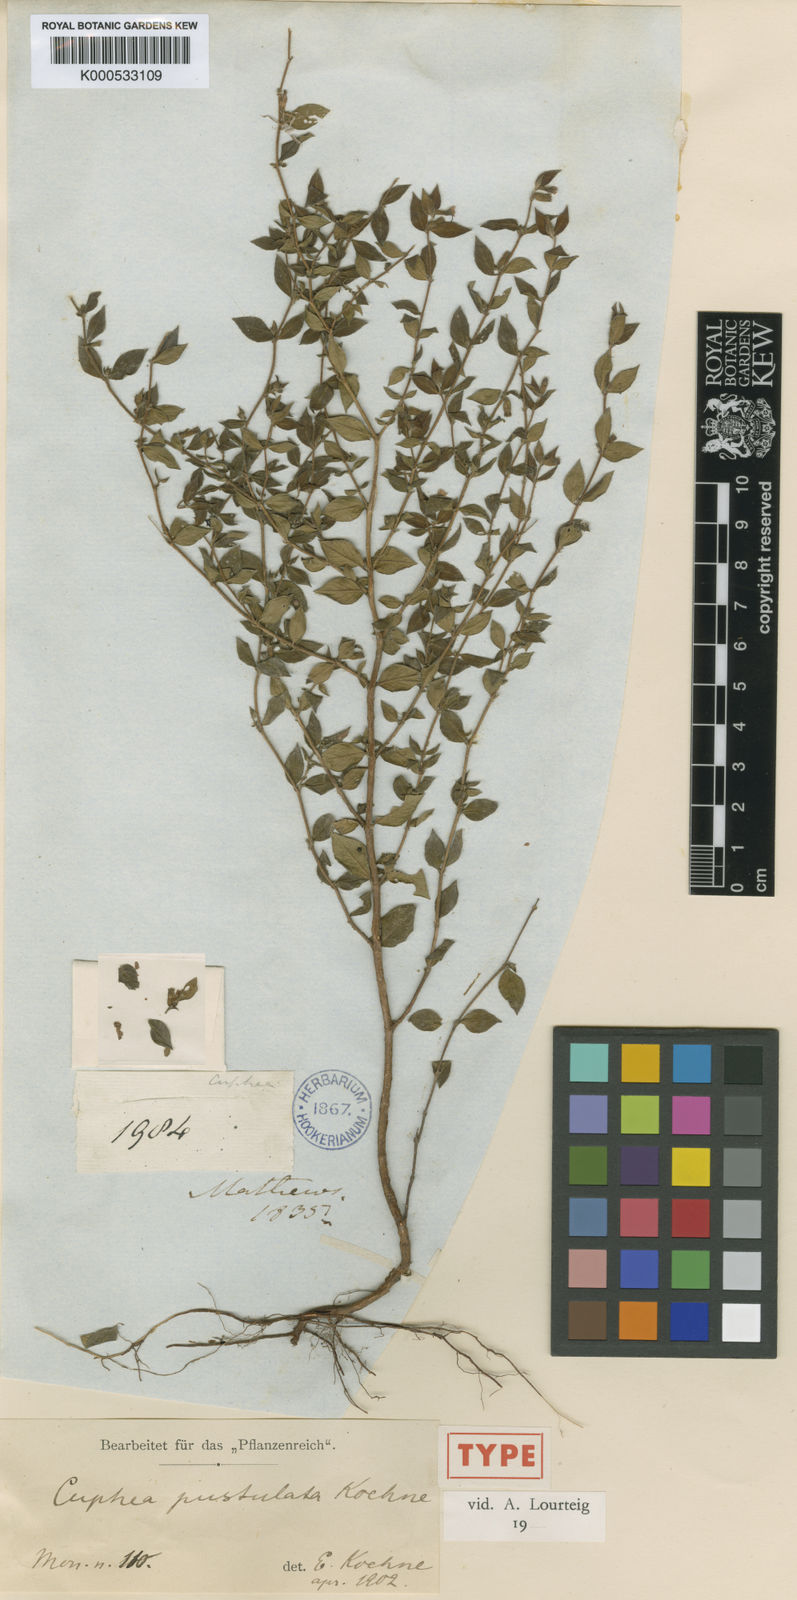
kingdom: Plantae
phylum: Tracheophyta
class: Magnoliopsida
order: Myrtales
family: Lythraceae
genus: Cuphea
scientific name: Cuphea pustulata
